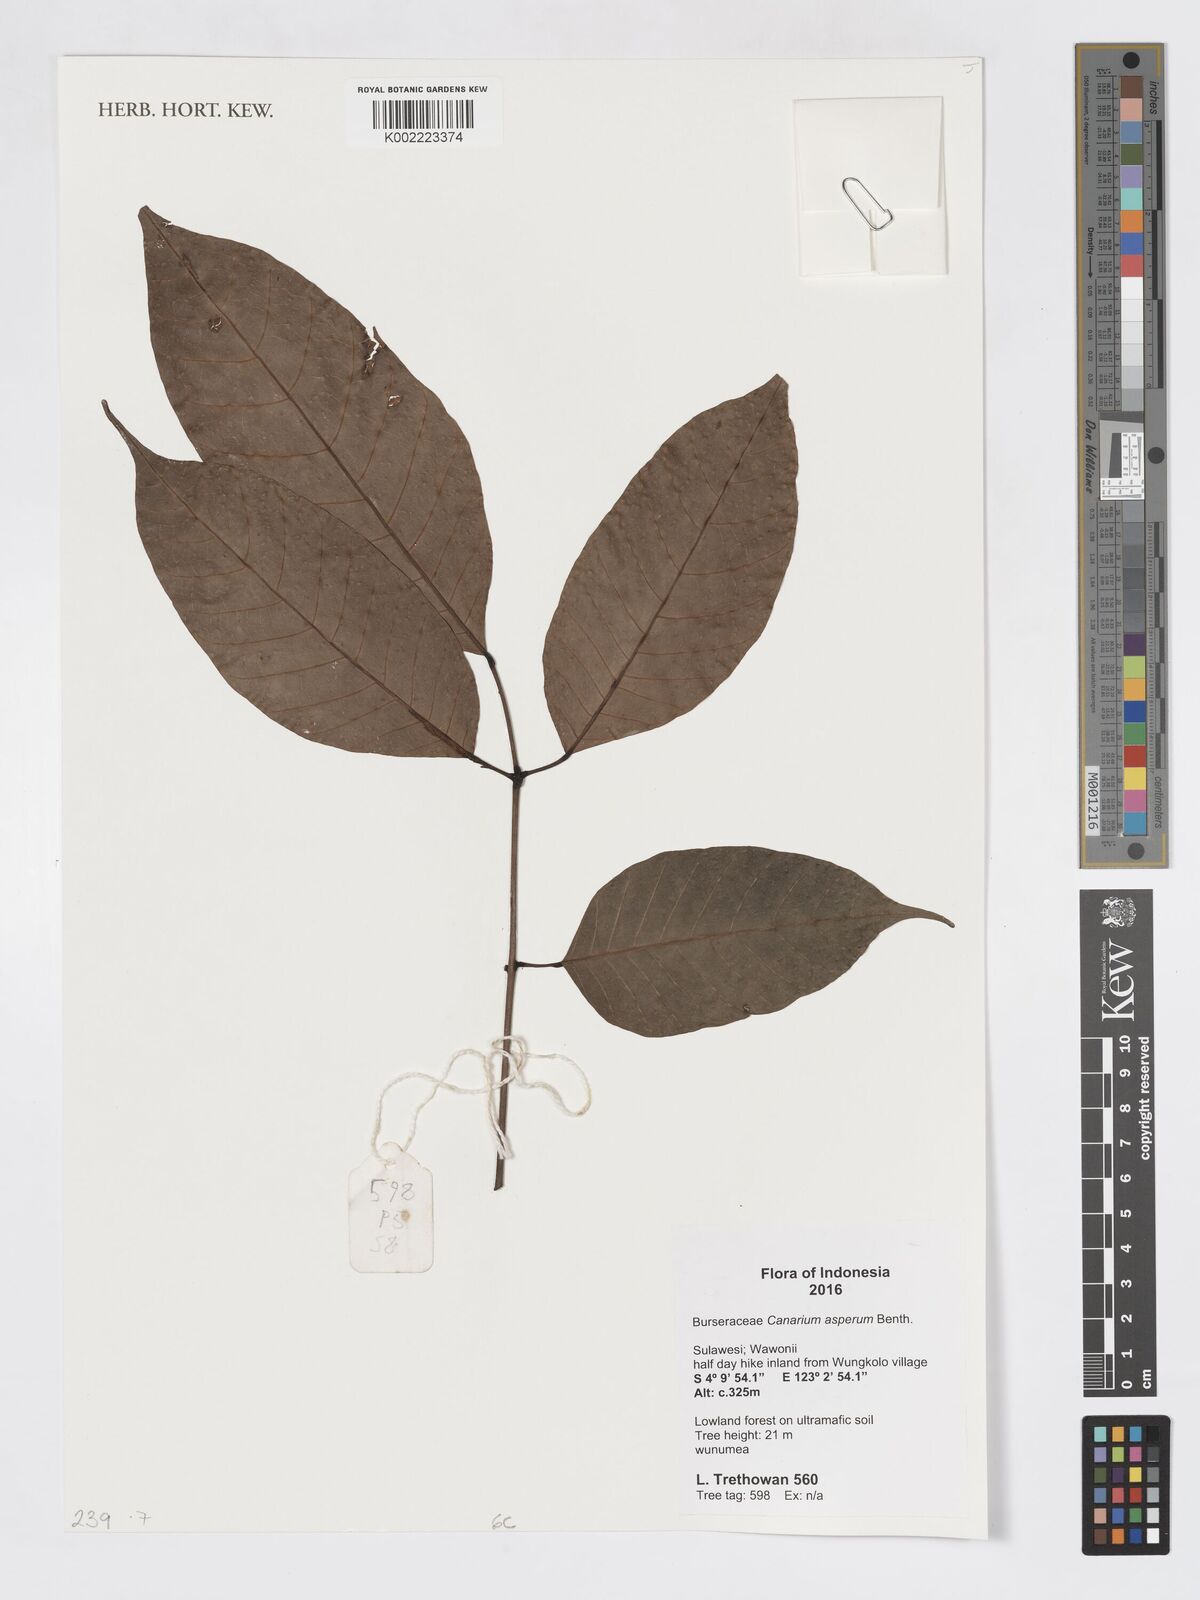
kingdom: Plantae
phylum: Tracheophyta
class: Magnoliopsida
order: Sapindales
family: Burseraceae
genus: Canarium
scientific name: Canarium asperum
